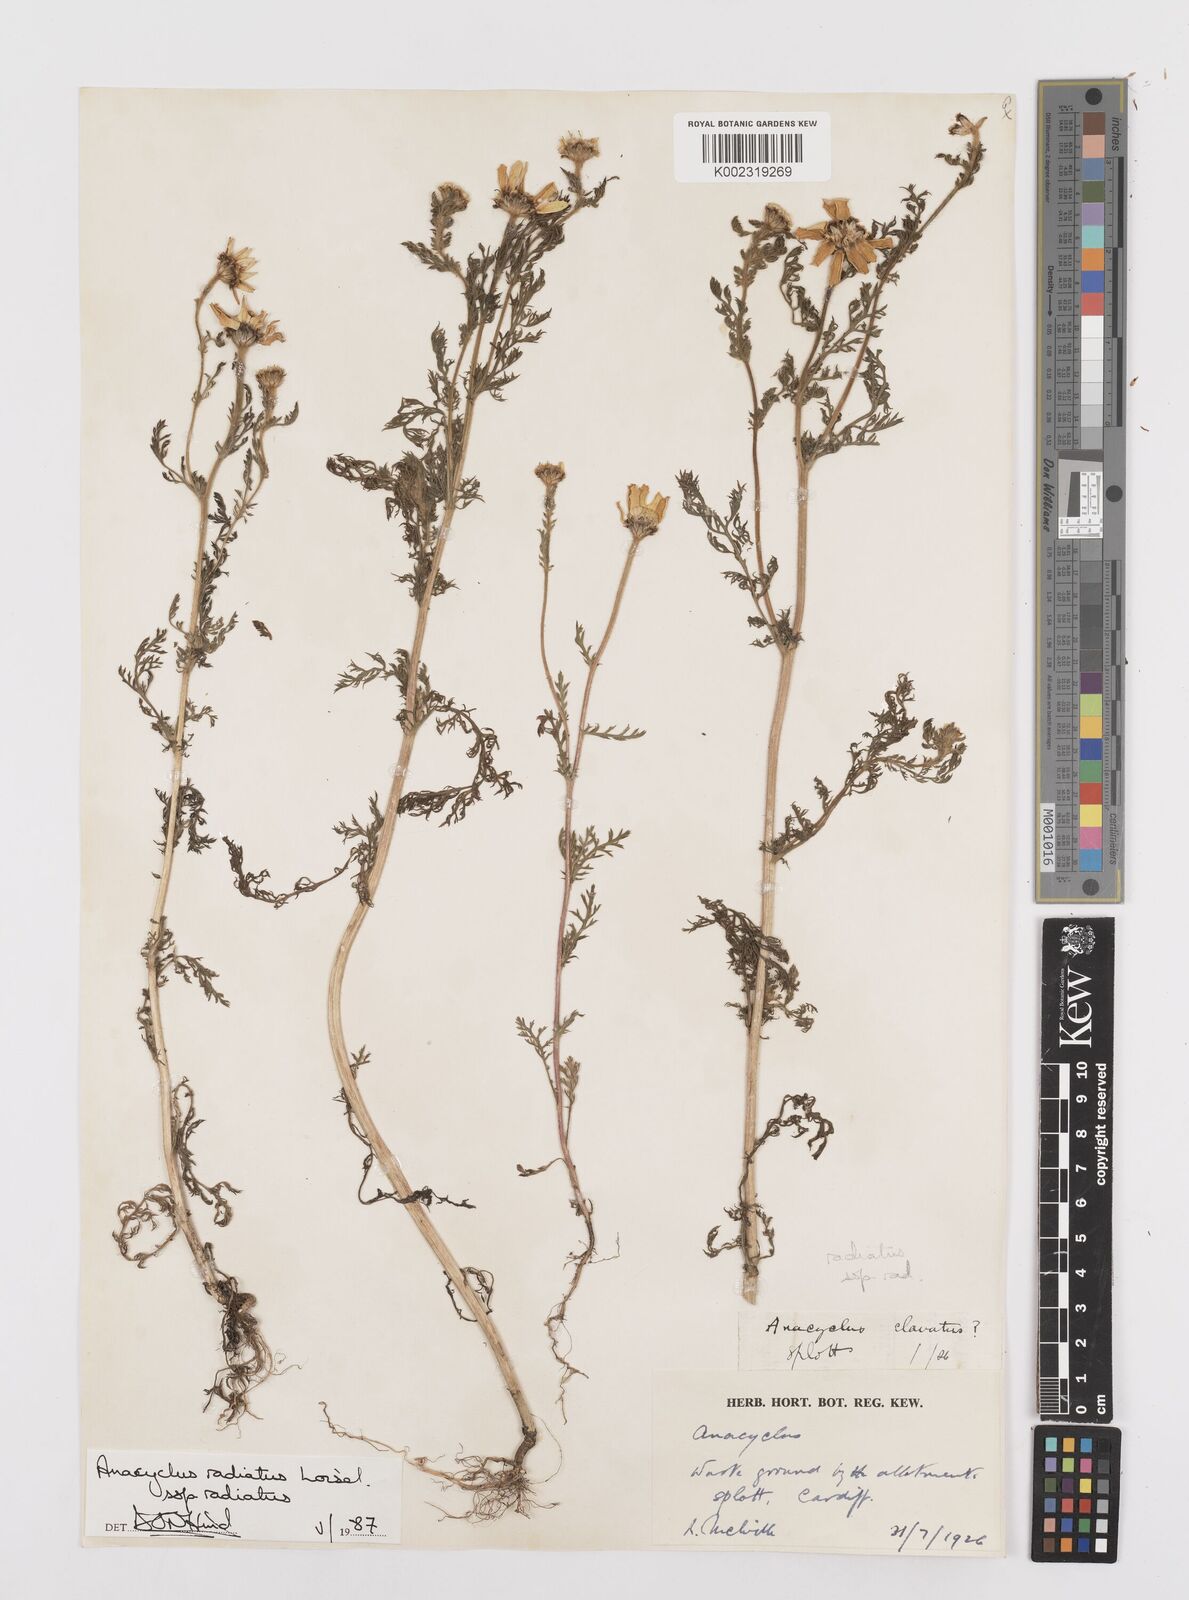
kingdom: Plantae
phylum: Tracheophyta
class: Magnoliopsida
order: Asterales
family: Asteraceae
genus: Anacyclus
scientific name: Anacyclus radiatus
